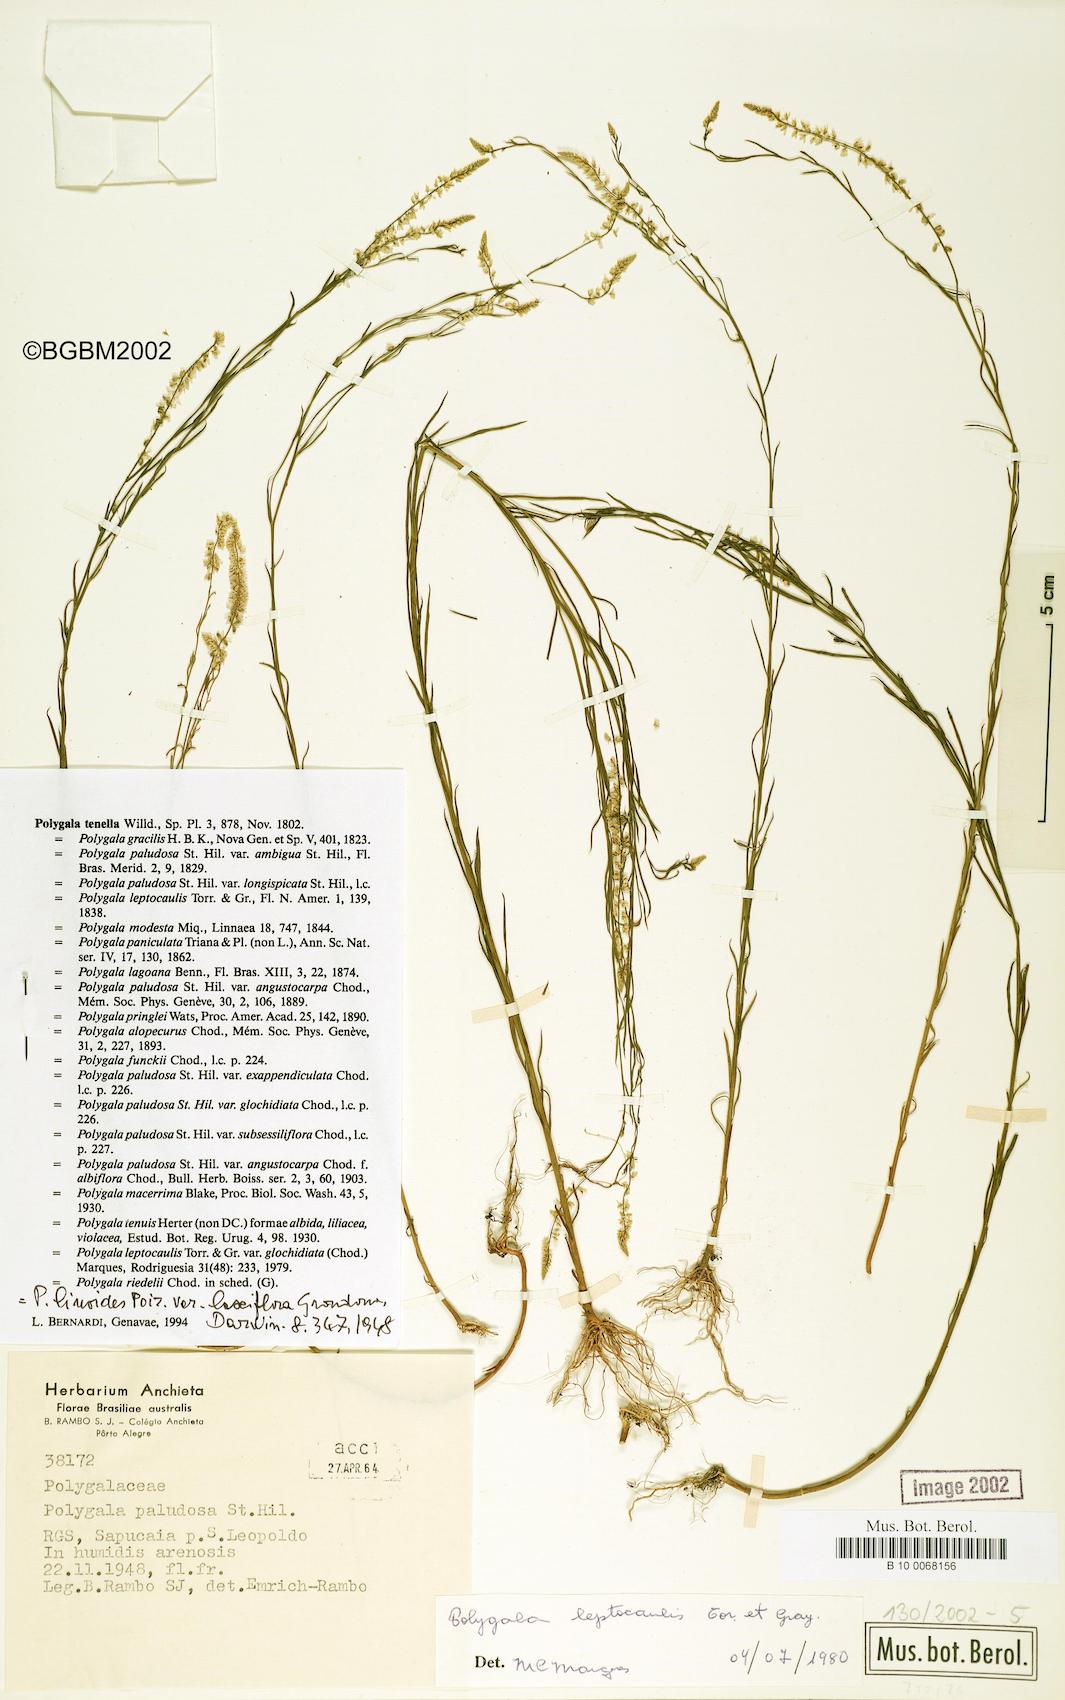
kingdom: Plantae
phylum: Tracheophyta
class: Magnoliopsida
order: Fabales
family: Polygalaceae
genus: Polygala
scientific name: Polygala
